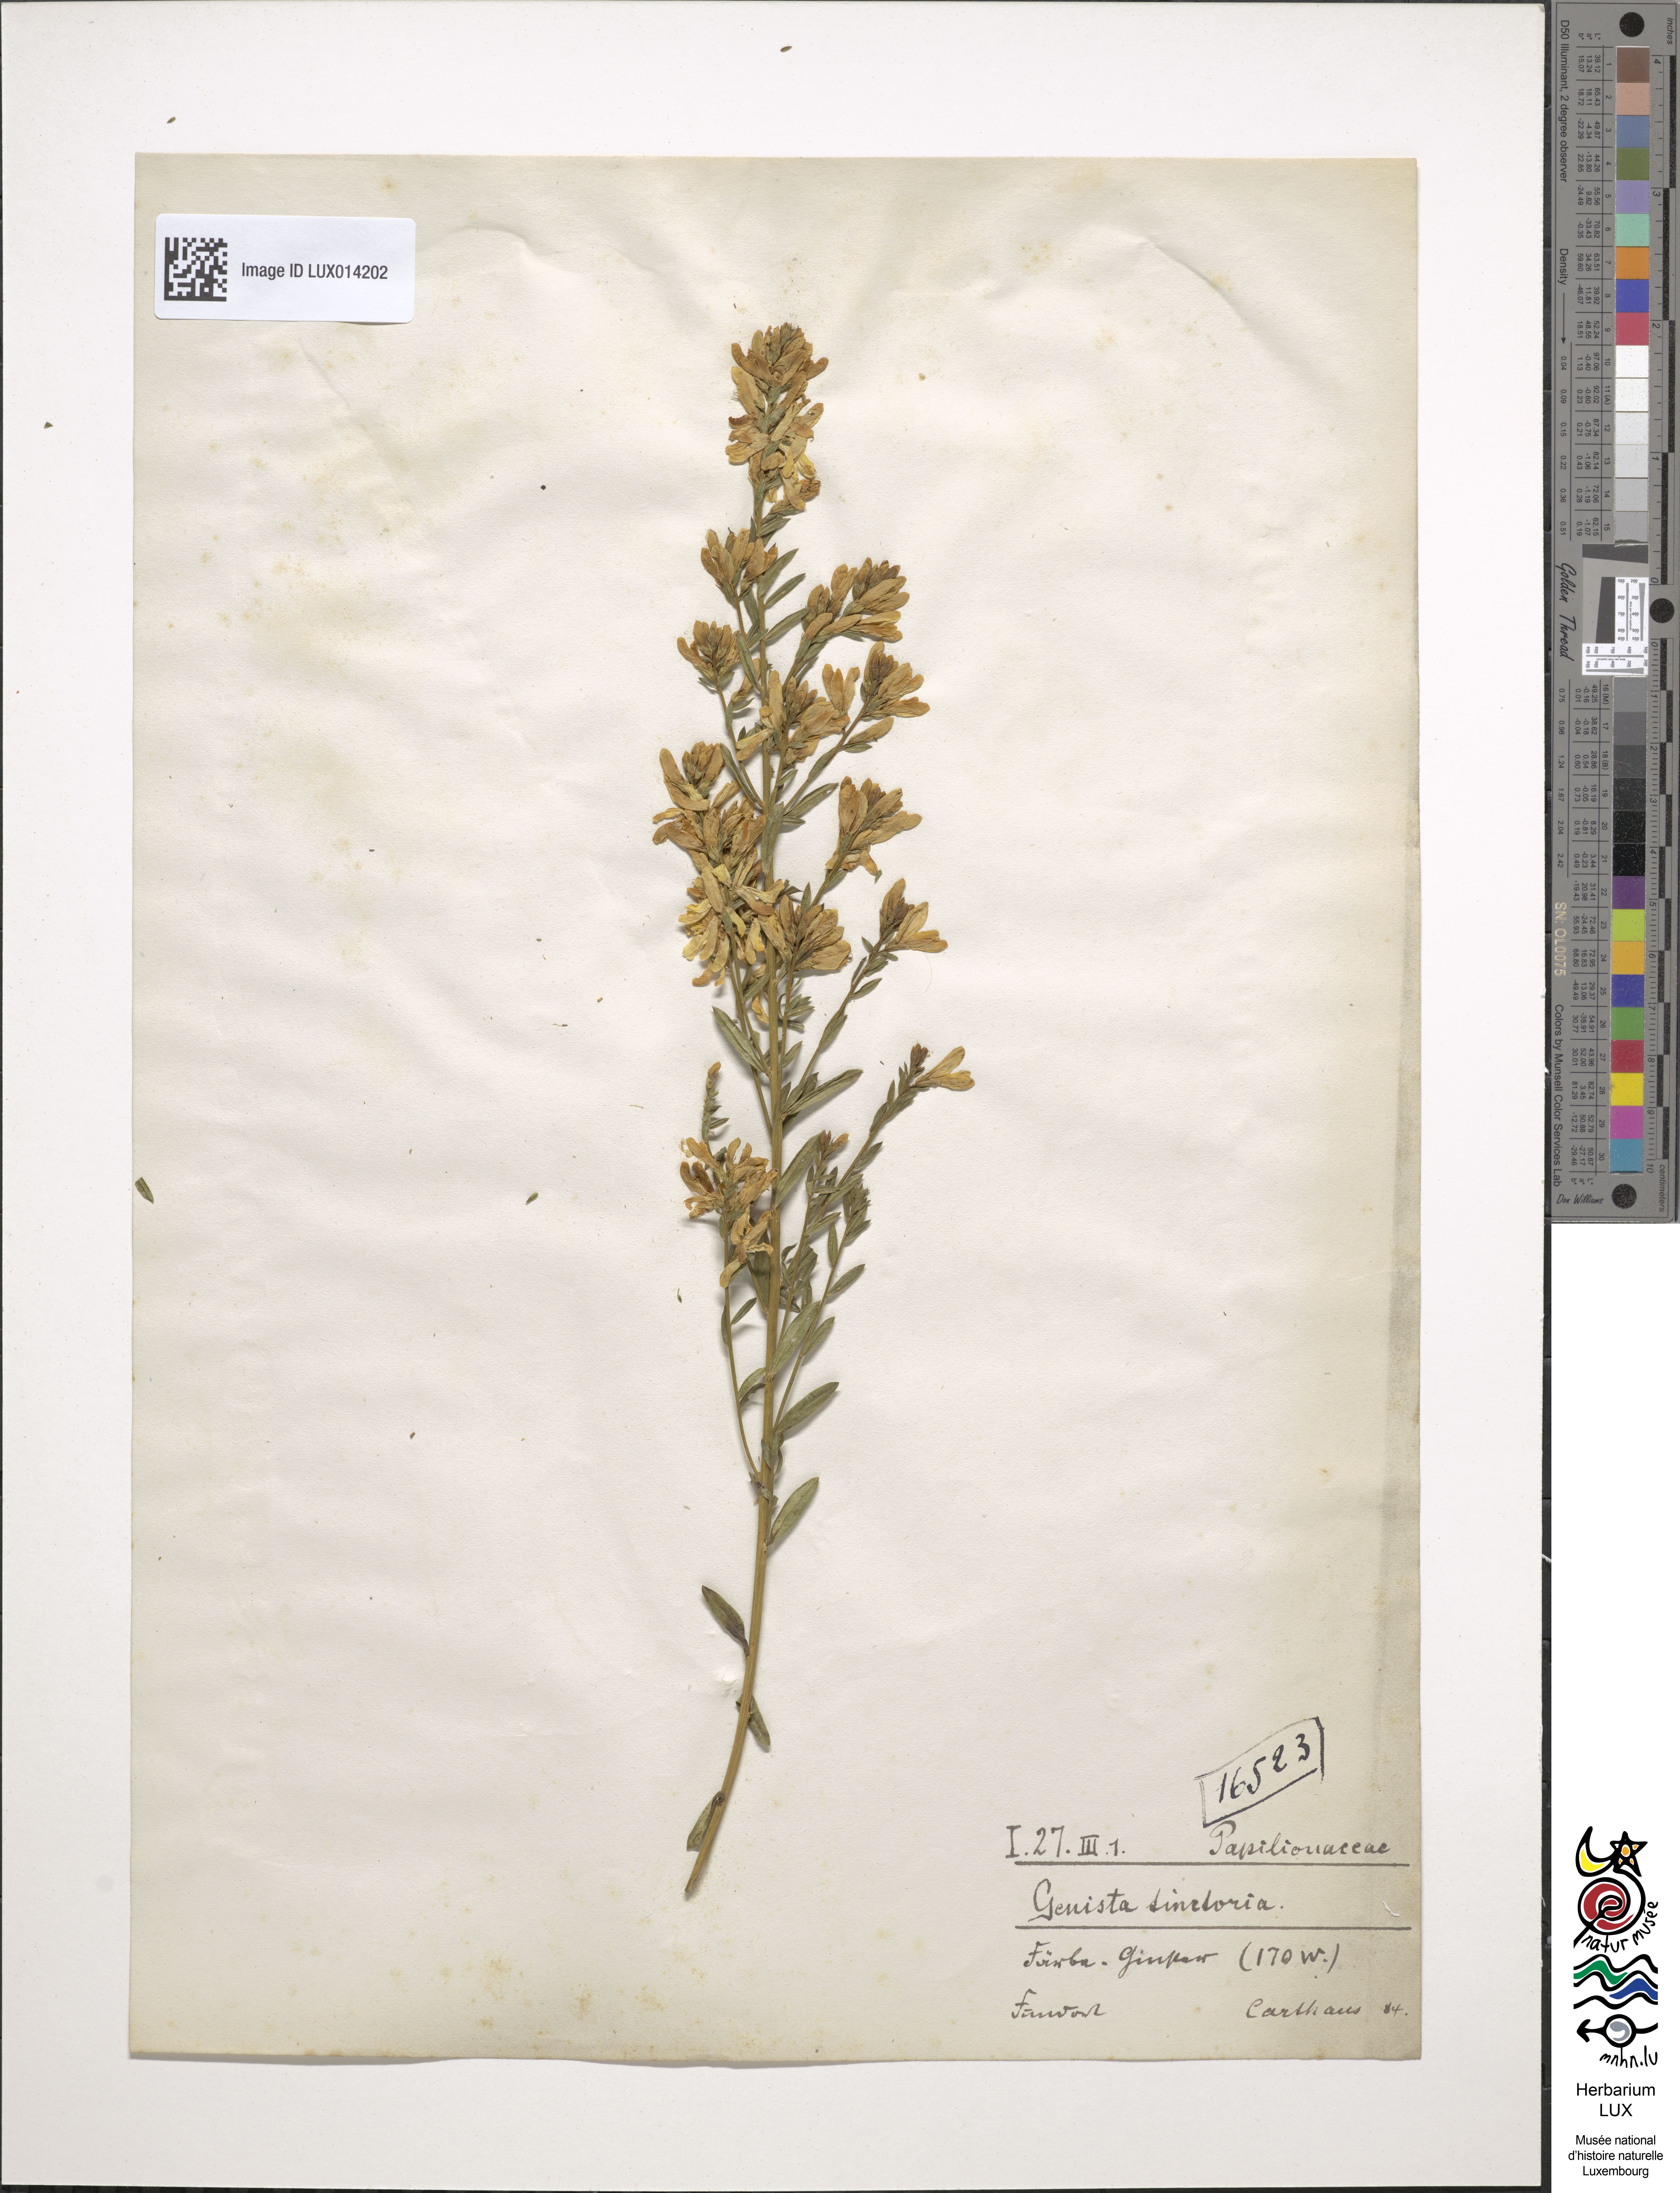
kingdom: Plantae
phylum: Tracheophyta
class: Magnoliopsida
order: Fabales
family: Fabaceae
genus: Genista
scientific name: Genista tinctoria
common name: Dyer's greenweed
